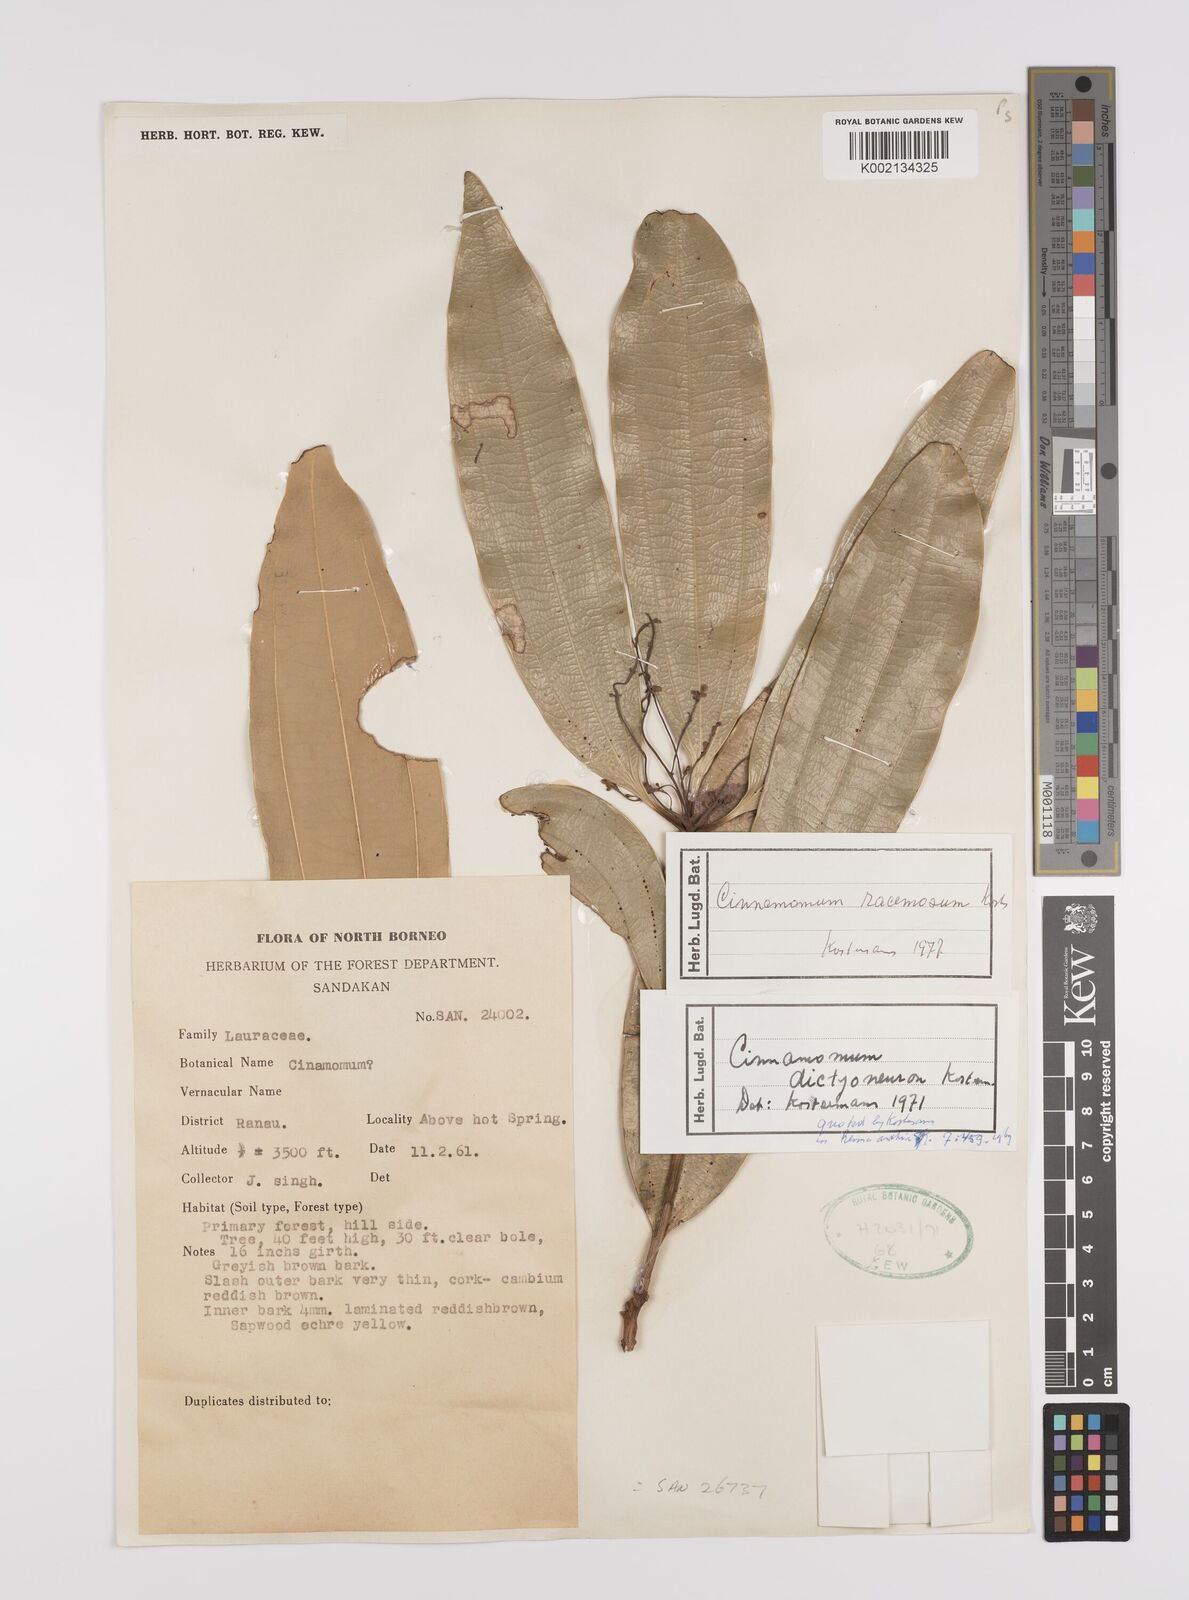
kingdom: Plantae
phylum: Tracheophyta
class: Magnoliopsida
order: Laurales
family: Lauraceae
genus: Cinnamomum
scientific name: Cinnamomum racemosum
